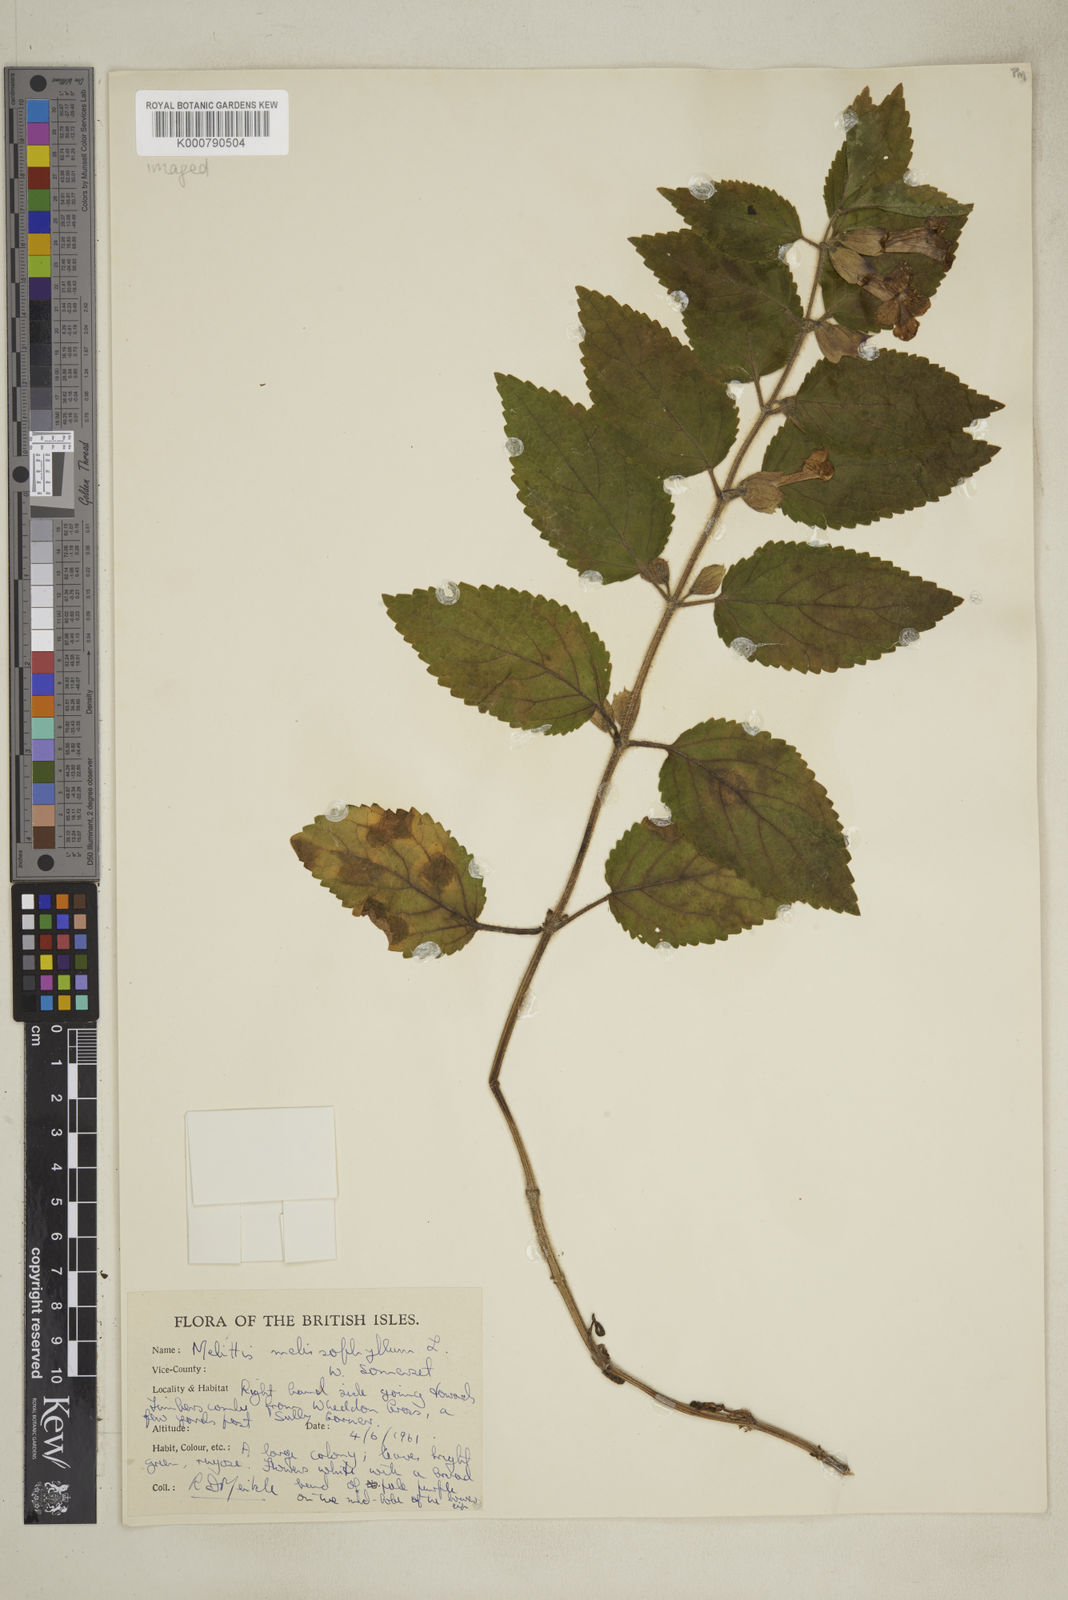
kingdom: Plantae
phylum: Tracheophyta
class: Magnoliopsida
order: Lamiales
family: Lamiaceae
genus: Melittis
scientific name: Melittis melissophyllum
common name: Bastard balm
